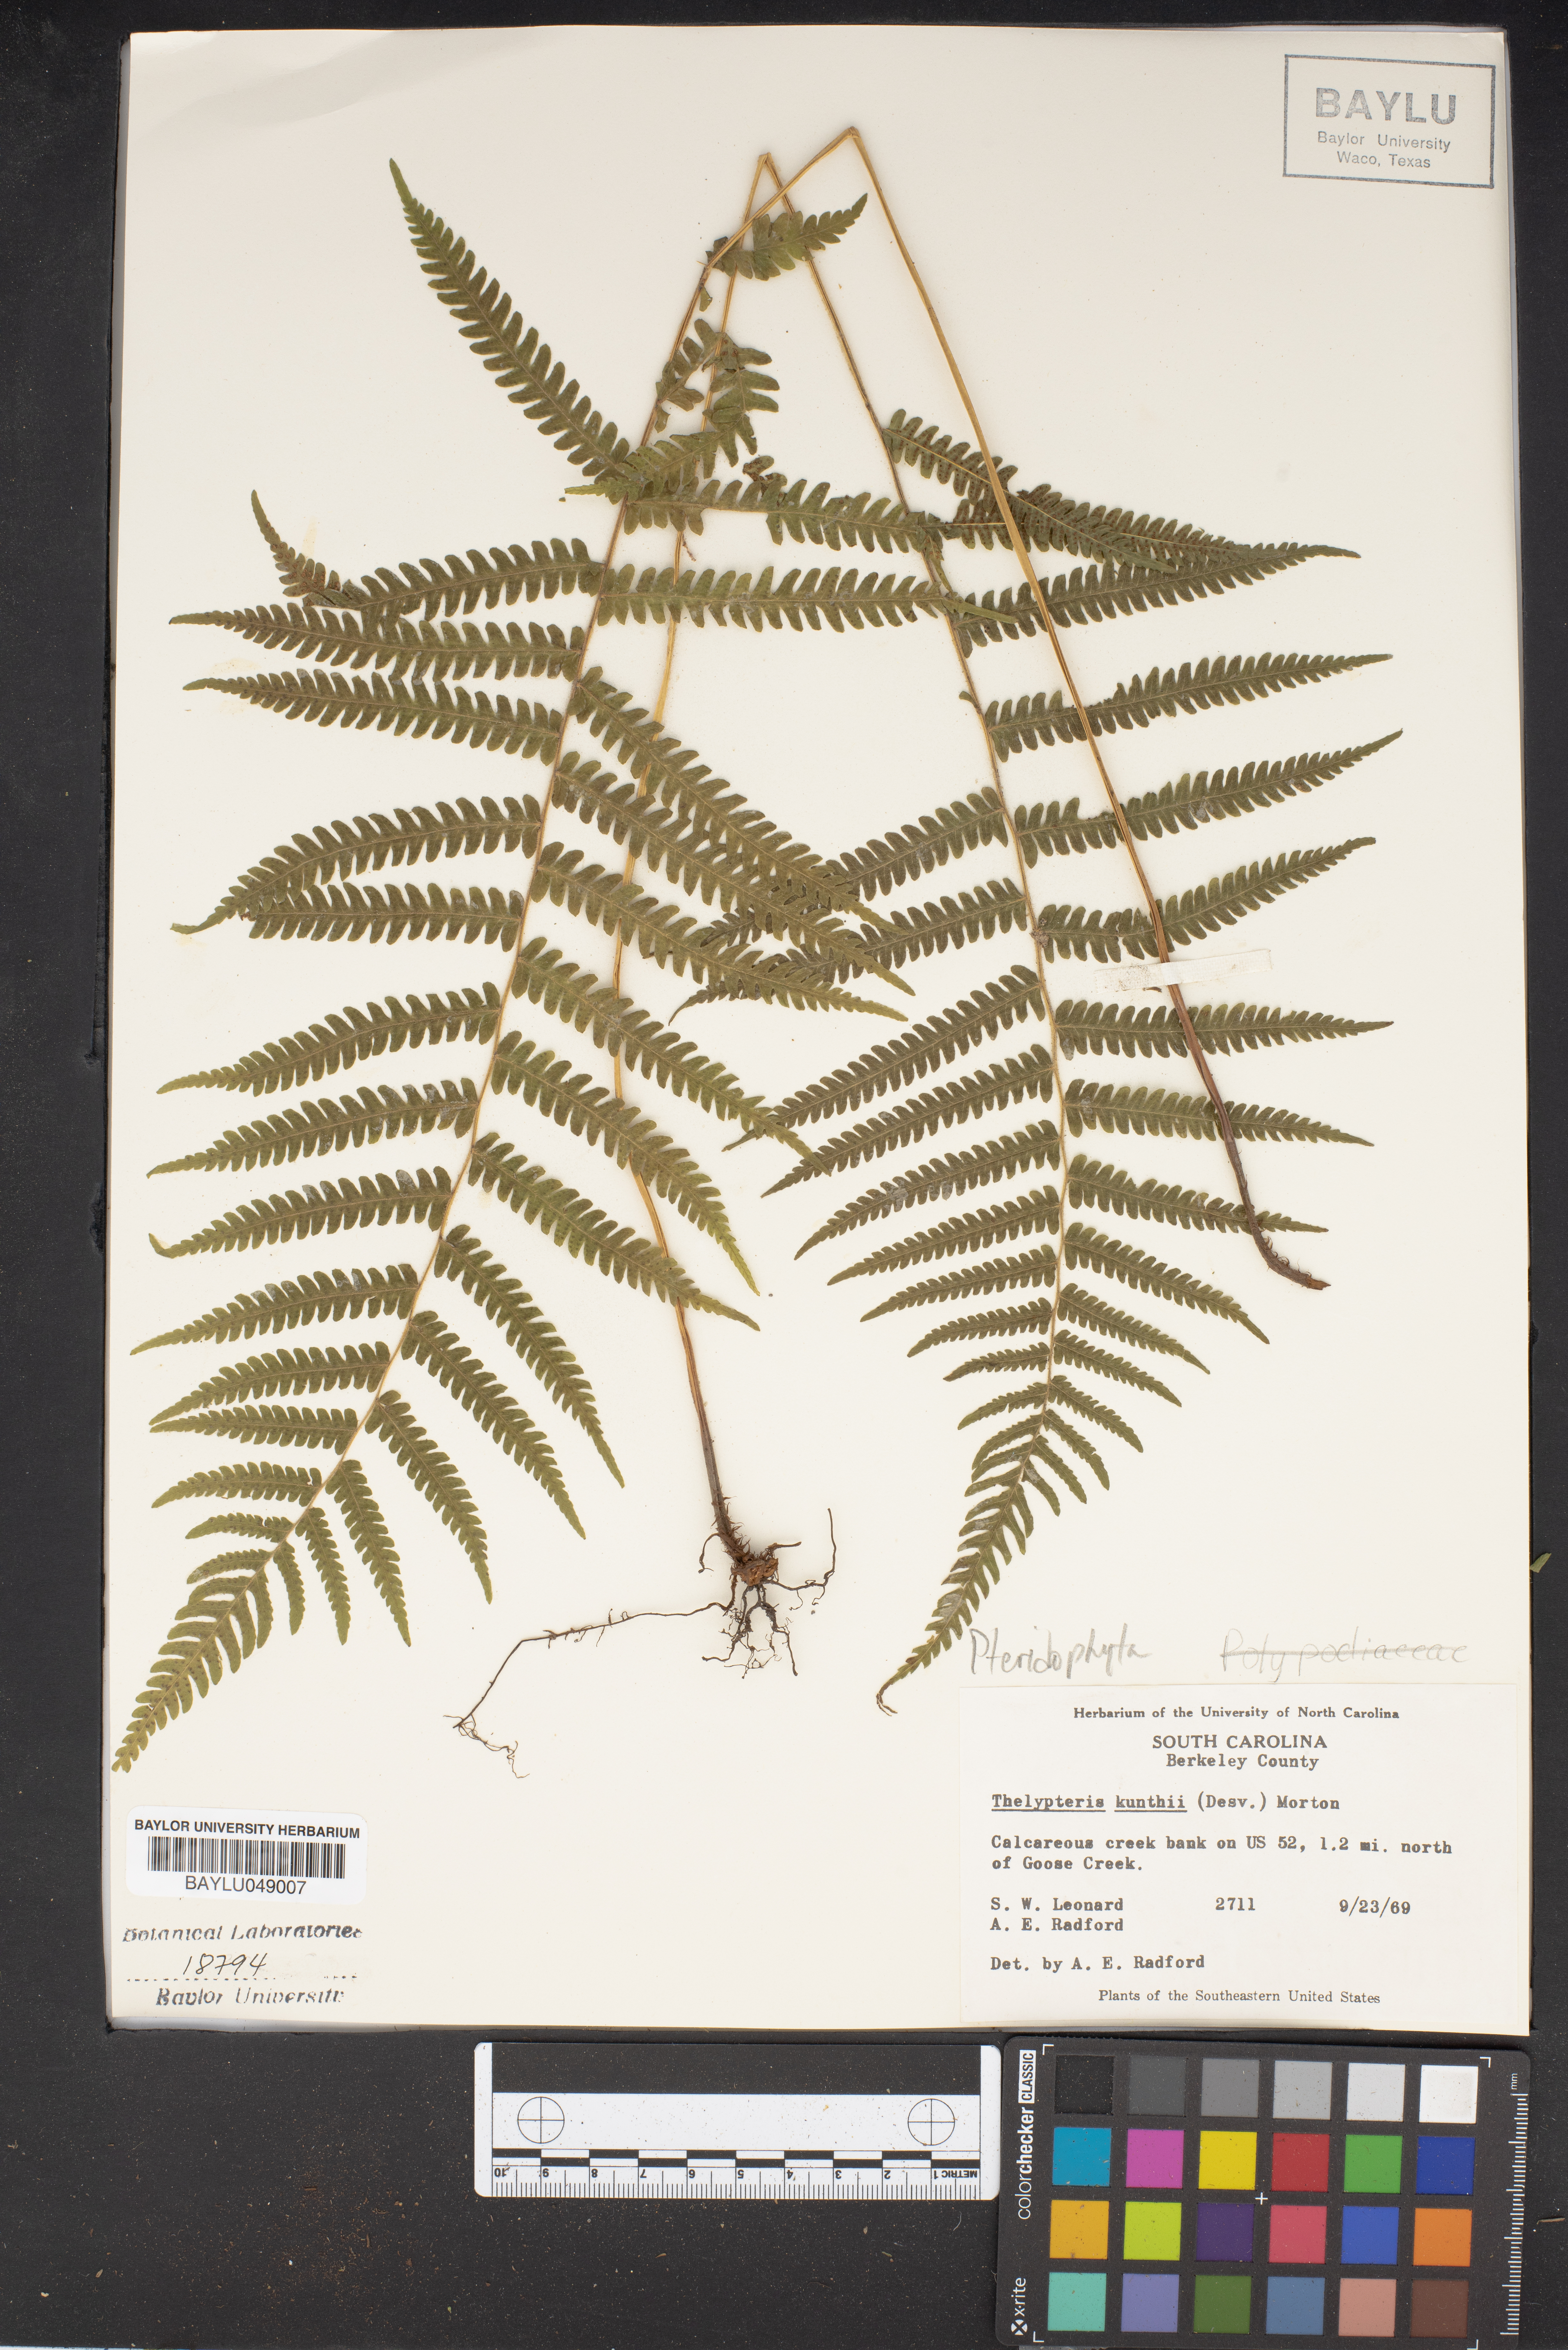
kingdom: Plantae
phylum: Tracheophyta
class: Polypodiopsida
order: Polypodiales
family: Thelypteridaceae
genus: Pelazoneuron
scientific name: Pelazoneuron kunthii
